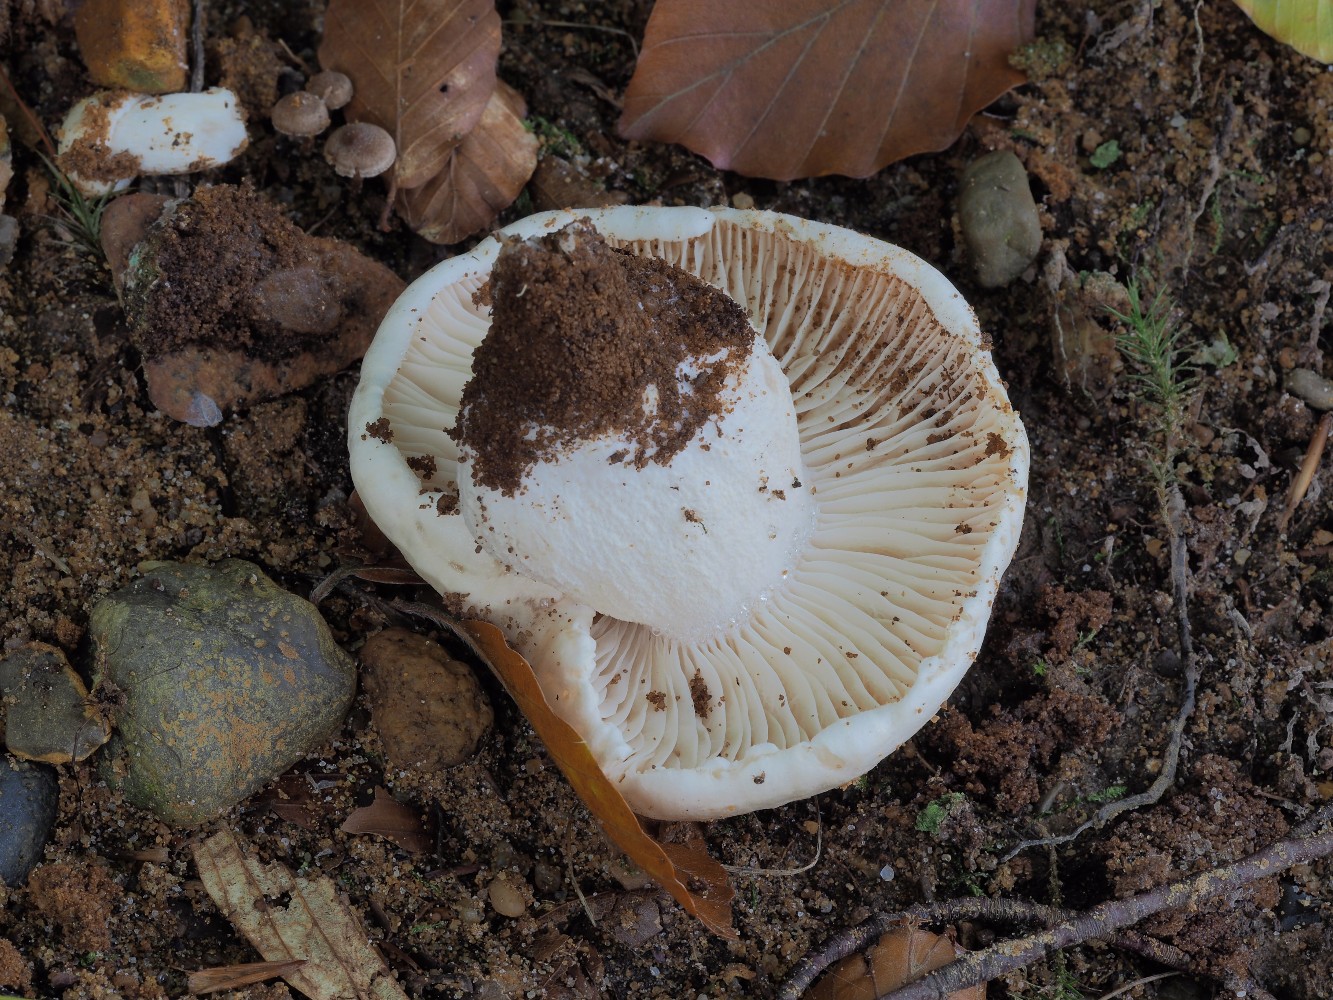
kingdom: Fungi
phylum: Basidiomycota
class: Agaricomycetes
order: Agaricales
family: Hygrophoraceae
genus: Hygrophorus
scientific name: Hygrophorus penarius
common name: spiselig sneglehat
